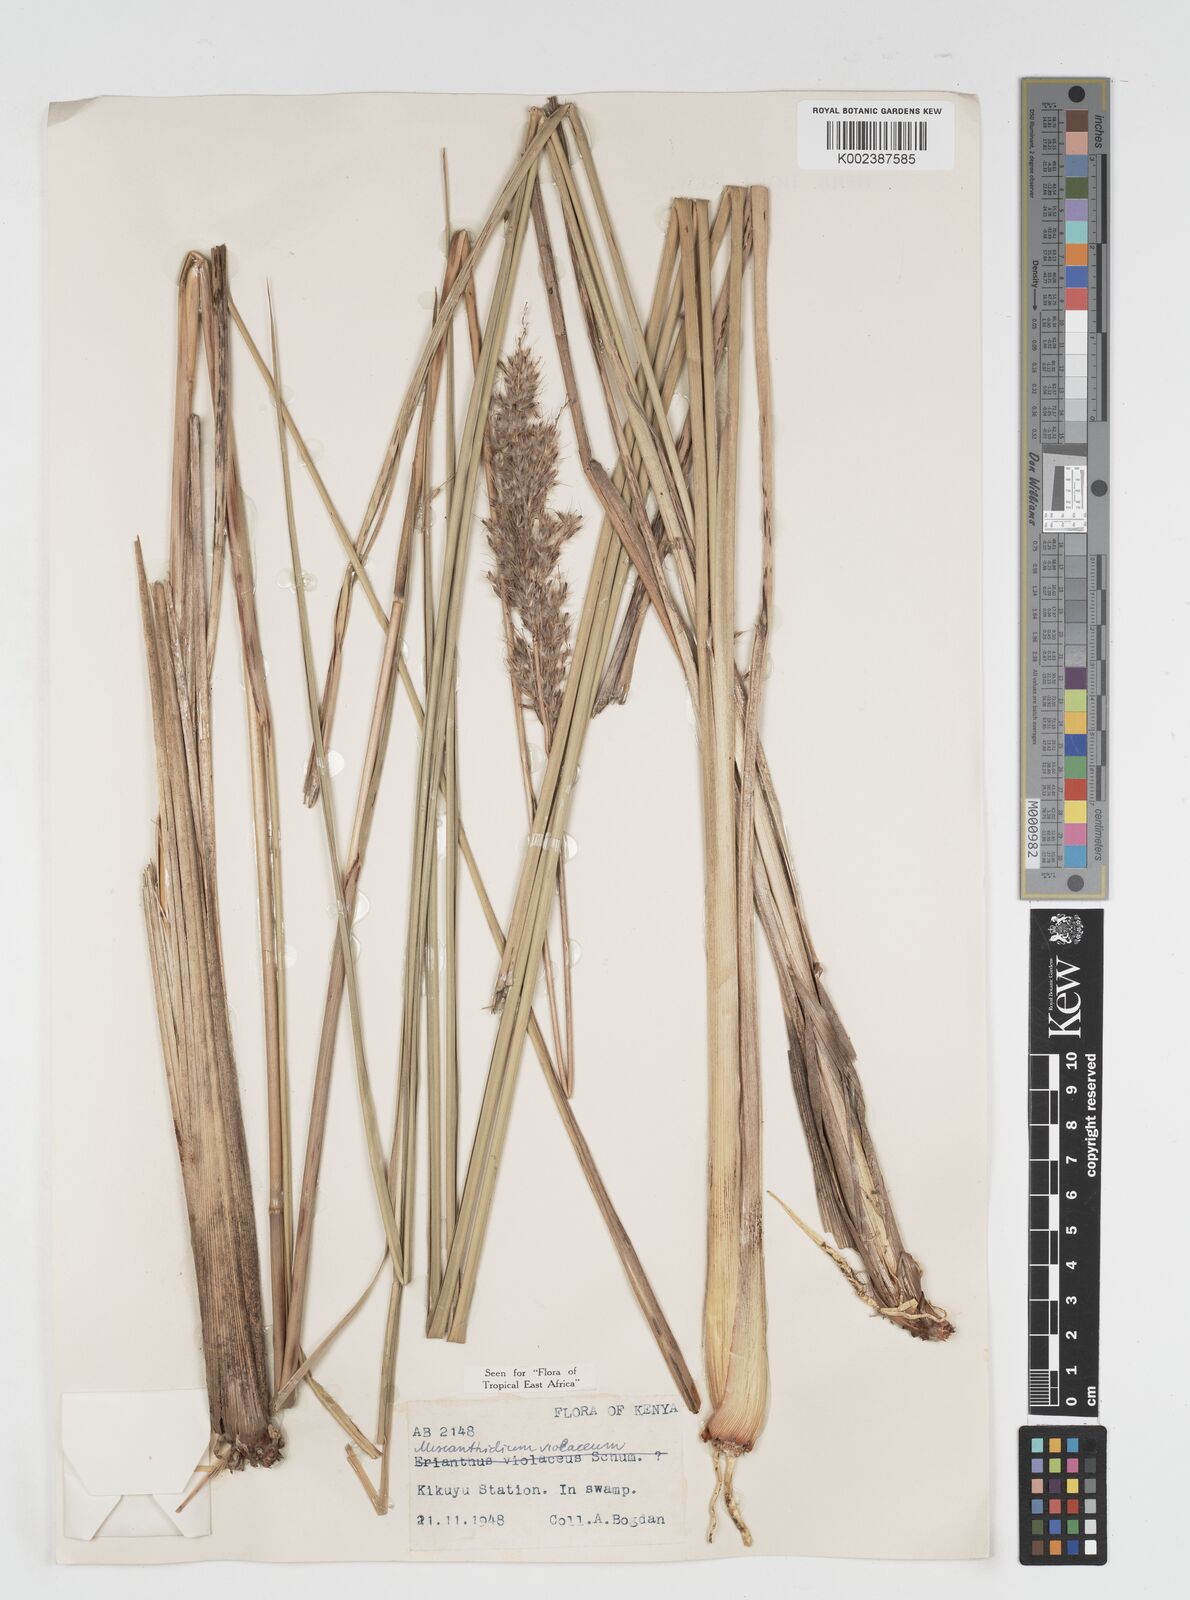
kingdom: Plantae
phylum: Tracheophyta
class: Liliopsida
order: Poales
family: Poaceae
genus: Miscanthidium
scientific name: Miscanthidium violaceum
